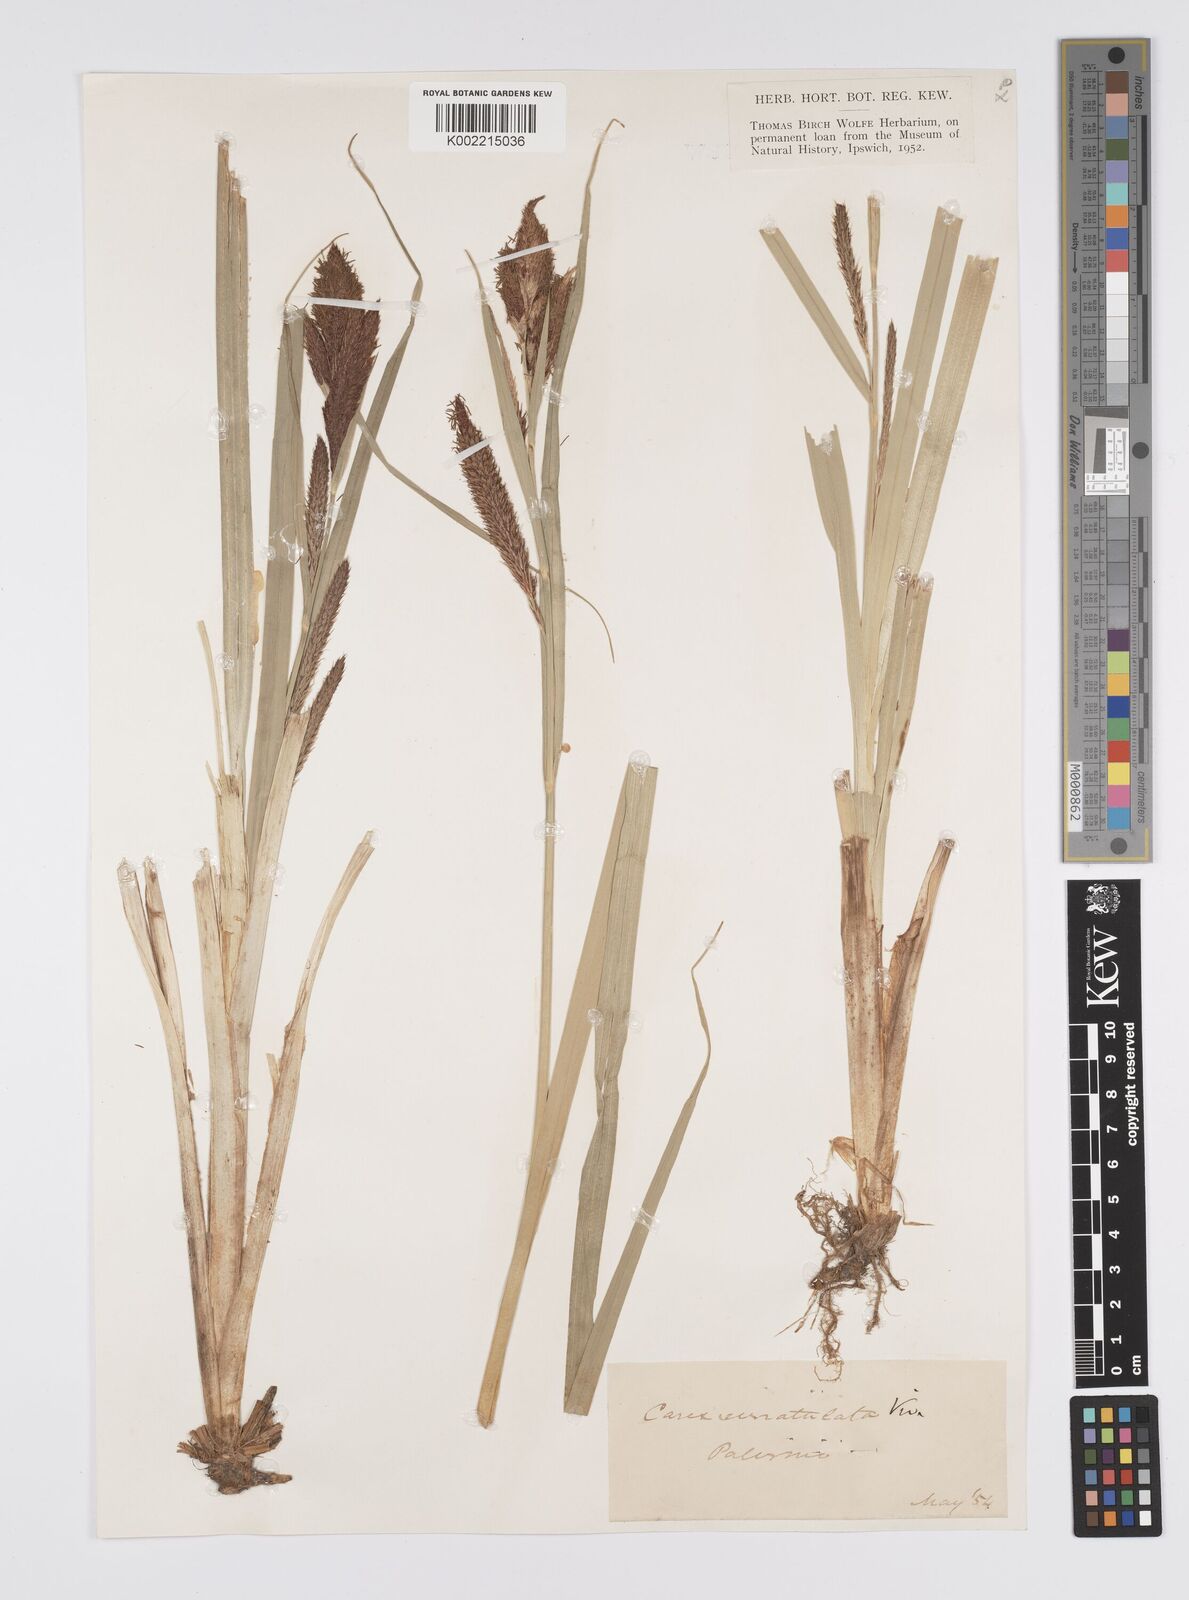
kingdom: Plantae
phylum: Tracheophyta
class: Liliopsida
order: Poales
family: Cyperaceae
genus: Carex
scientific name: Carex riparia
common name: Greater pond-sedge
